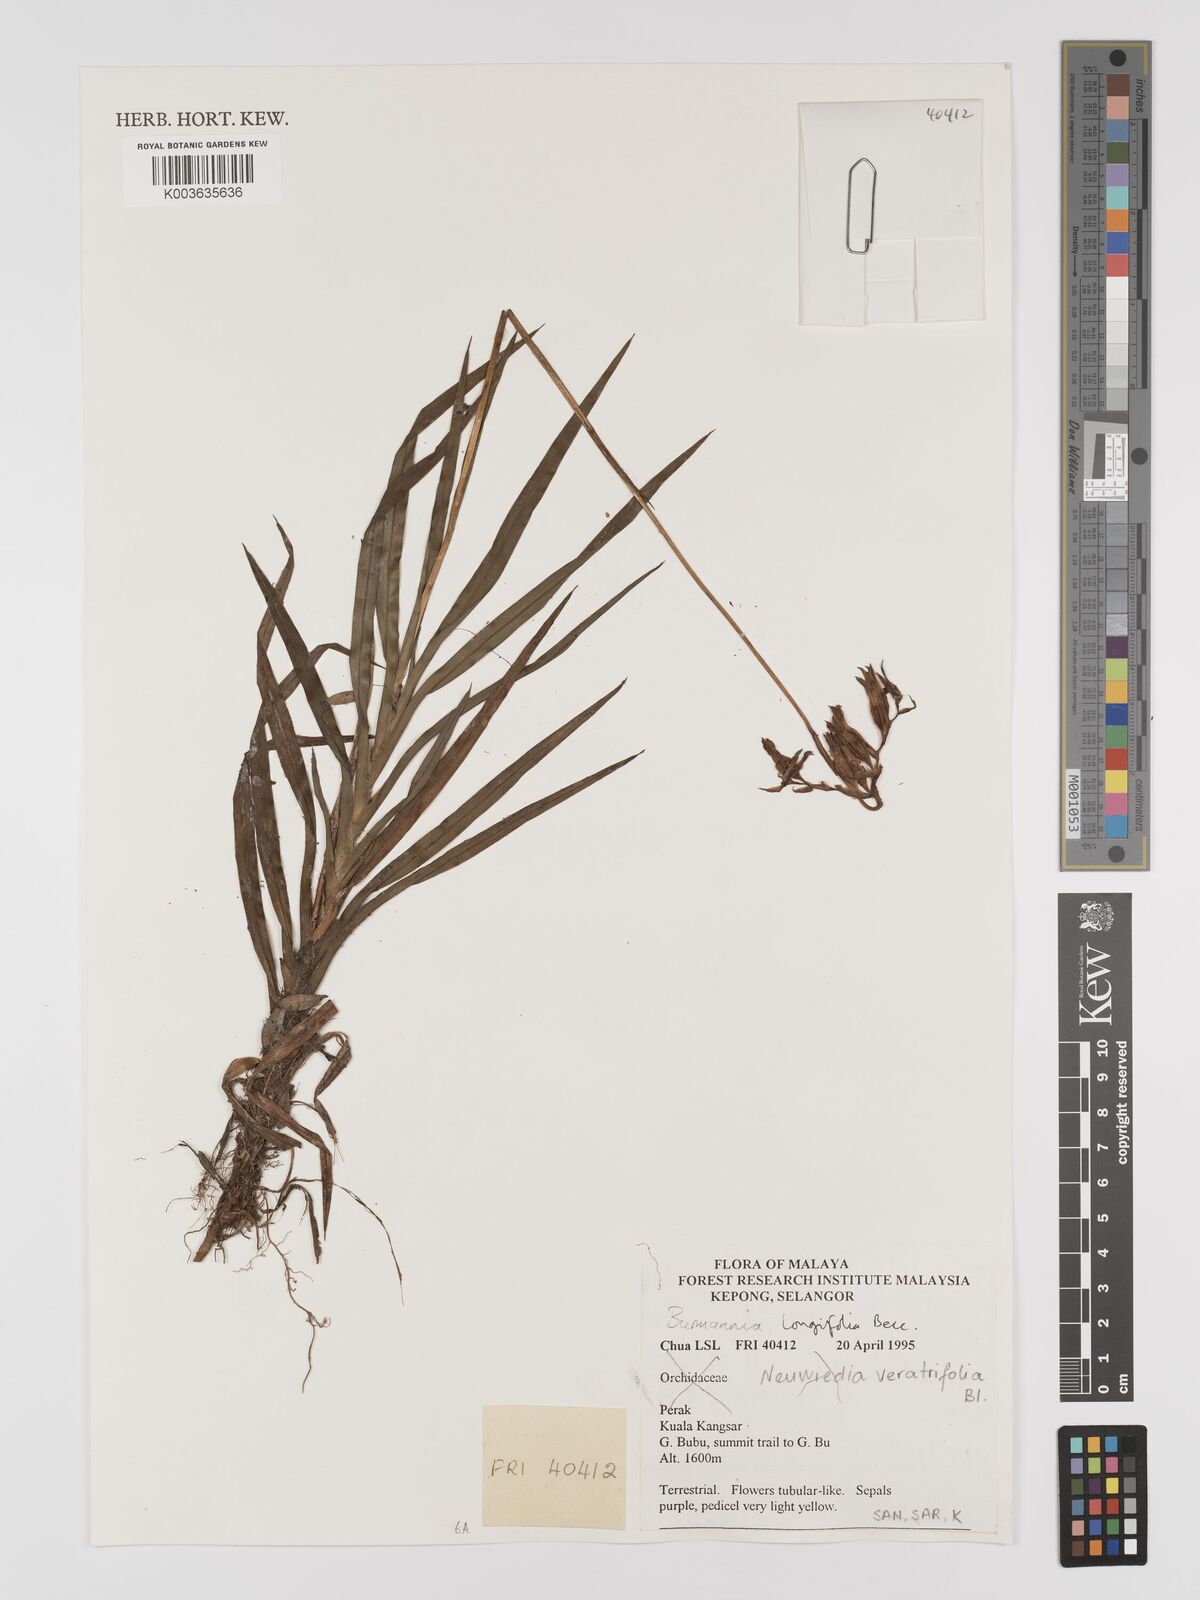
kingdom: Plantae
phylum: Tracheophyta
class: Liliopsida
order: Dioscoreales
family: Burmanniaceae
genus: Burmannia
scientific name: Burmannia longifolia
